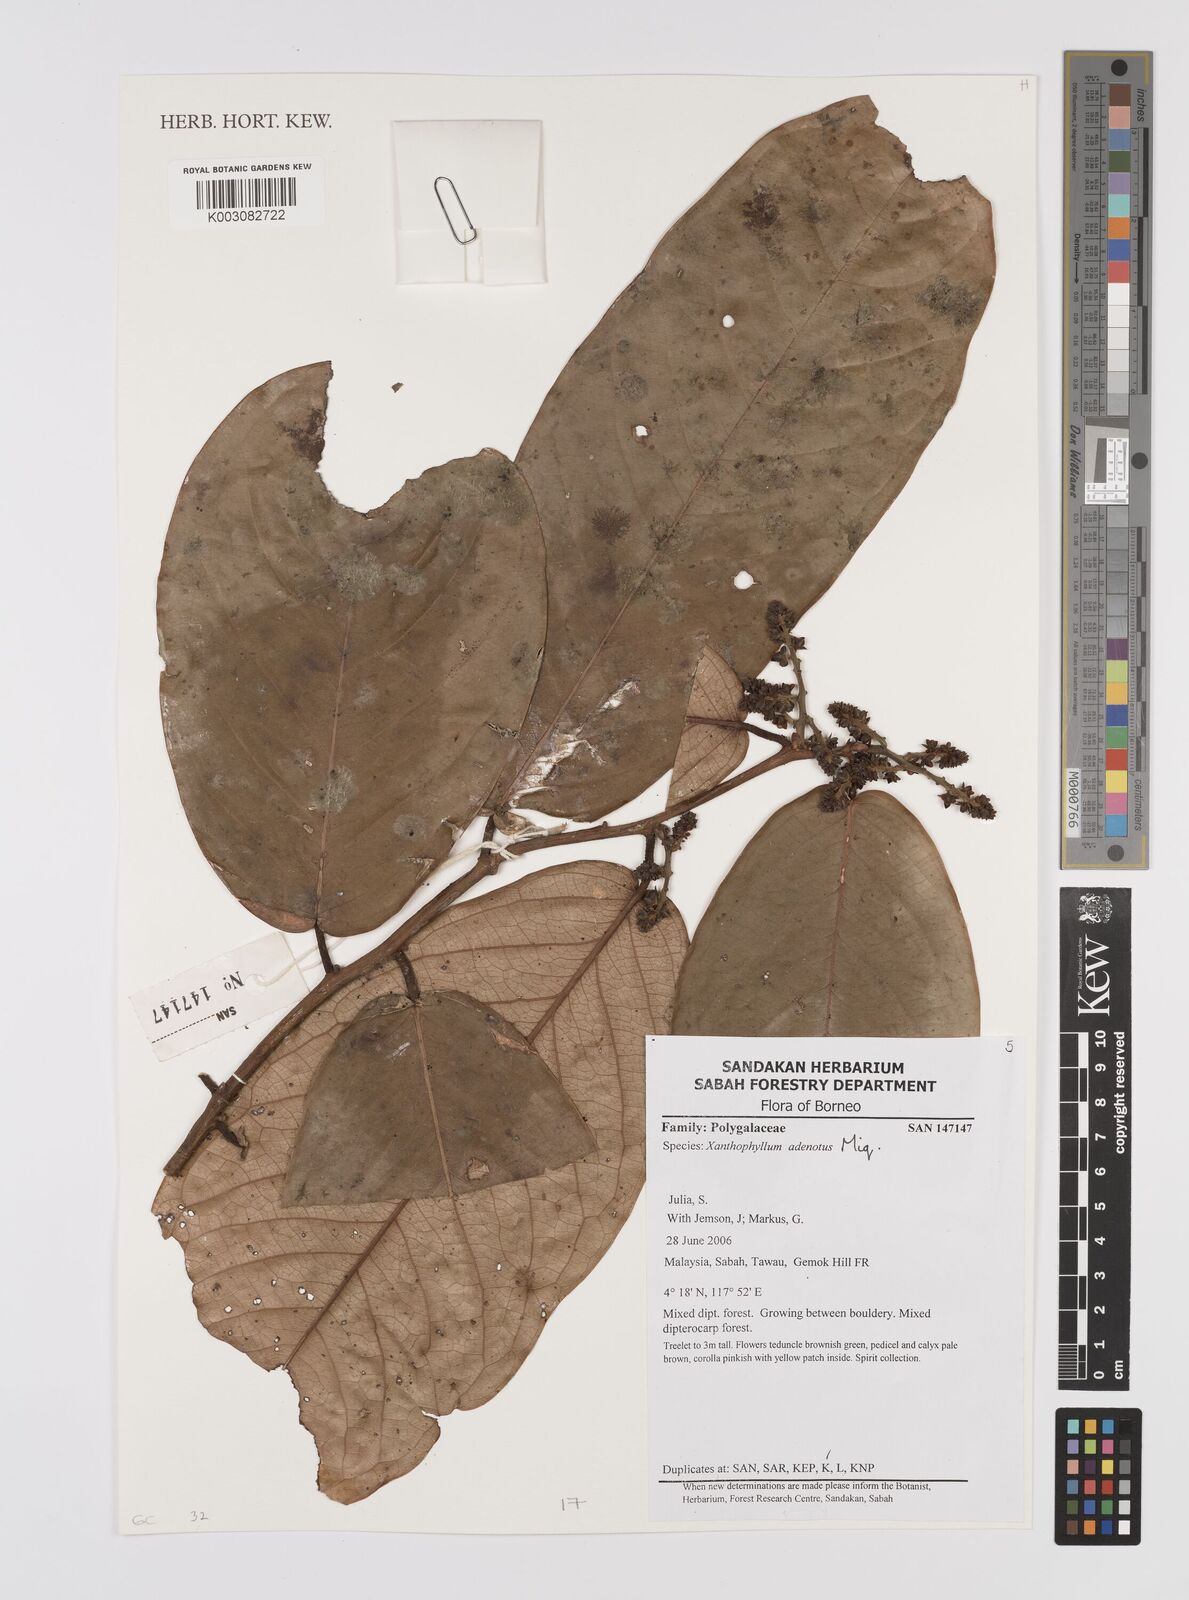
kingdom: Plantae
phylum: Tracheophyta
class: Magnoliopsida
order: Fabales
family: Polygalaceae
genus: Xanthophyllum
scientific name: Xanthophyllum adenotus
